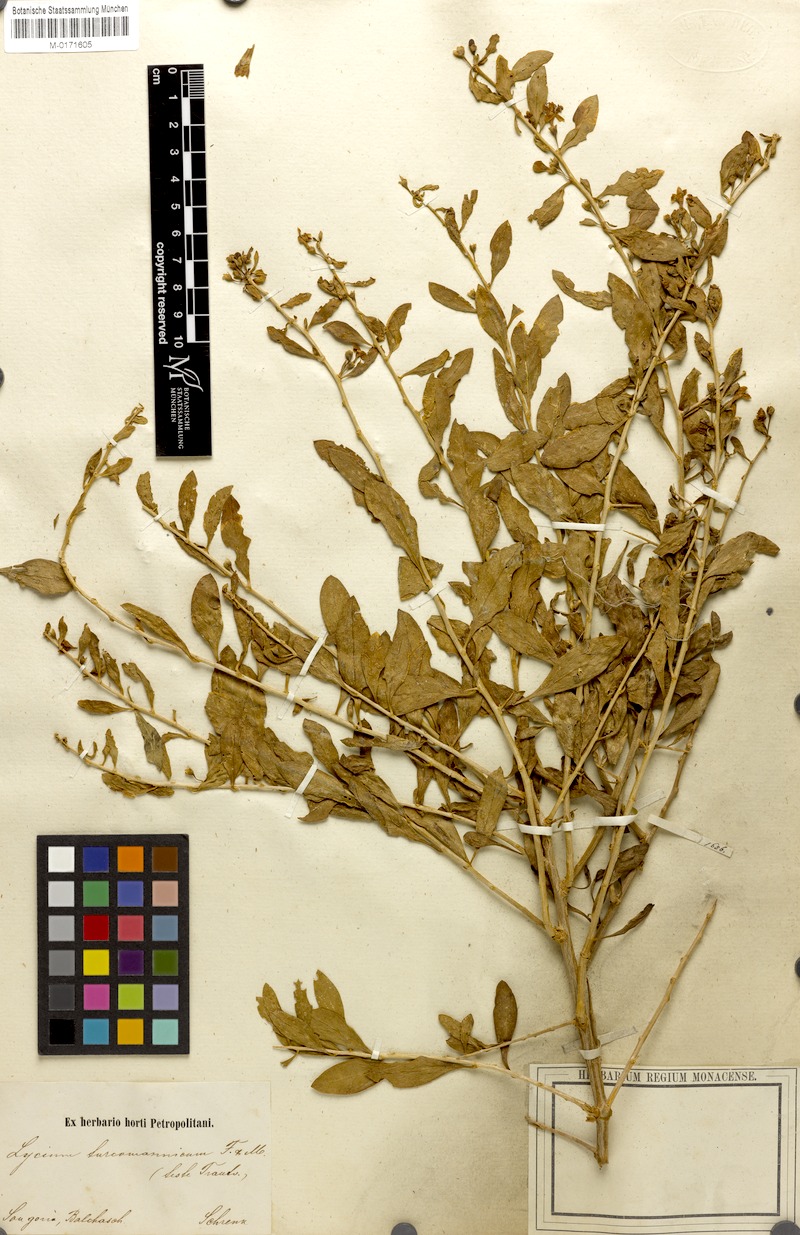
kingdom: Plantae
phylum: Tracheophyta
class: Magnoliopsida
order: Solanales
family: Solanaceae
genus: Lycium
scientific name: Lycium depressum
